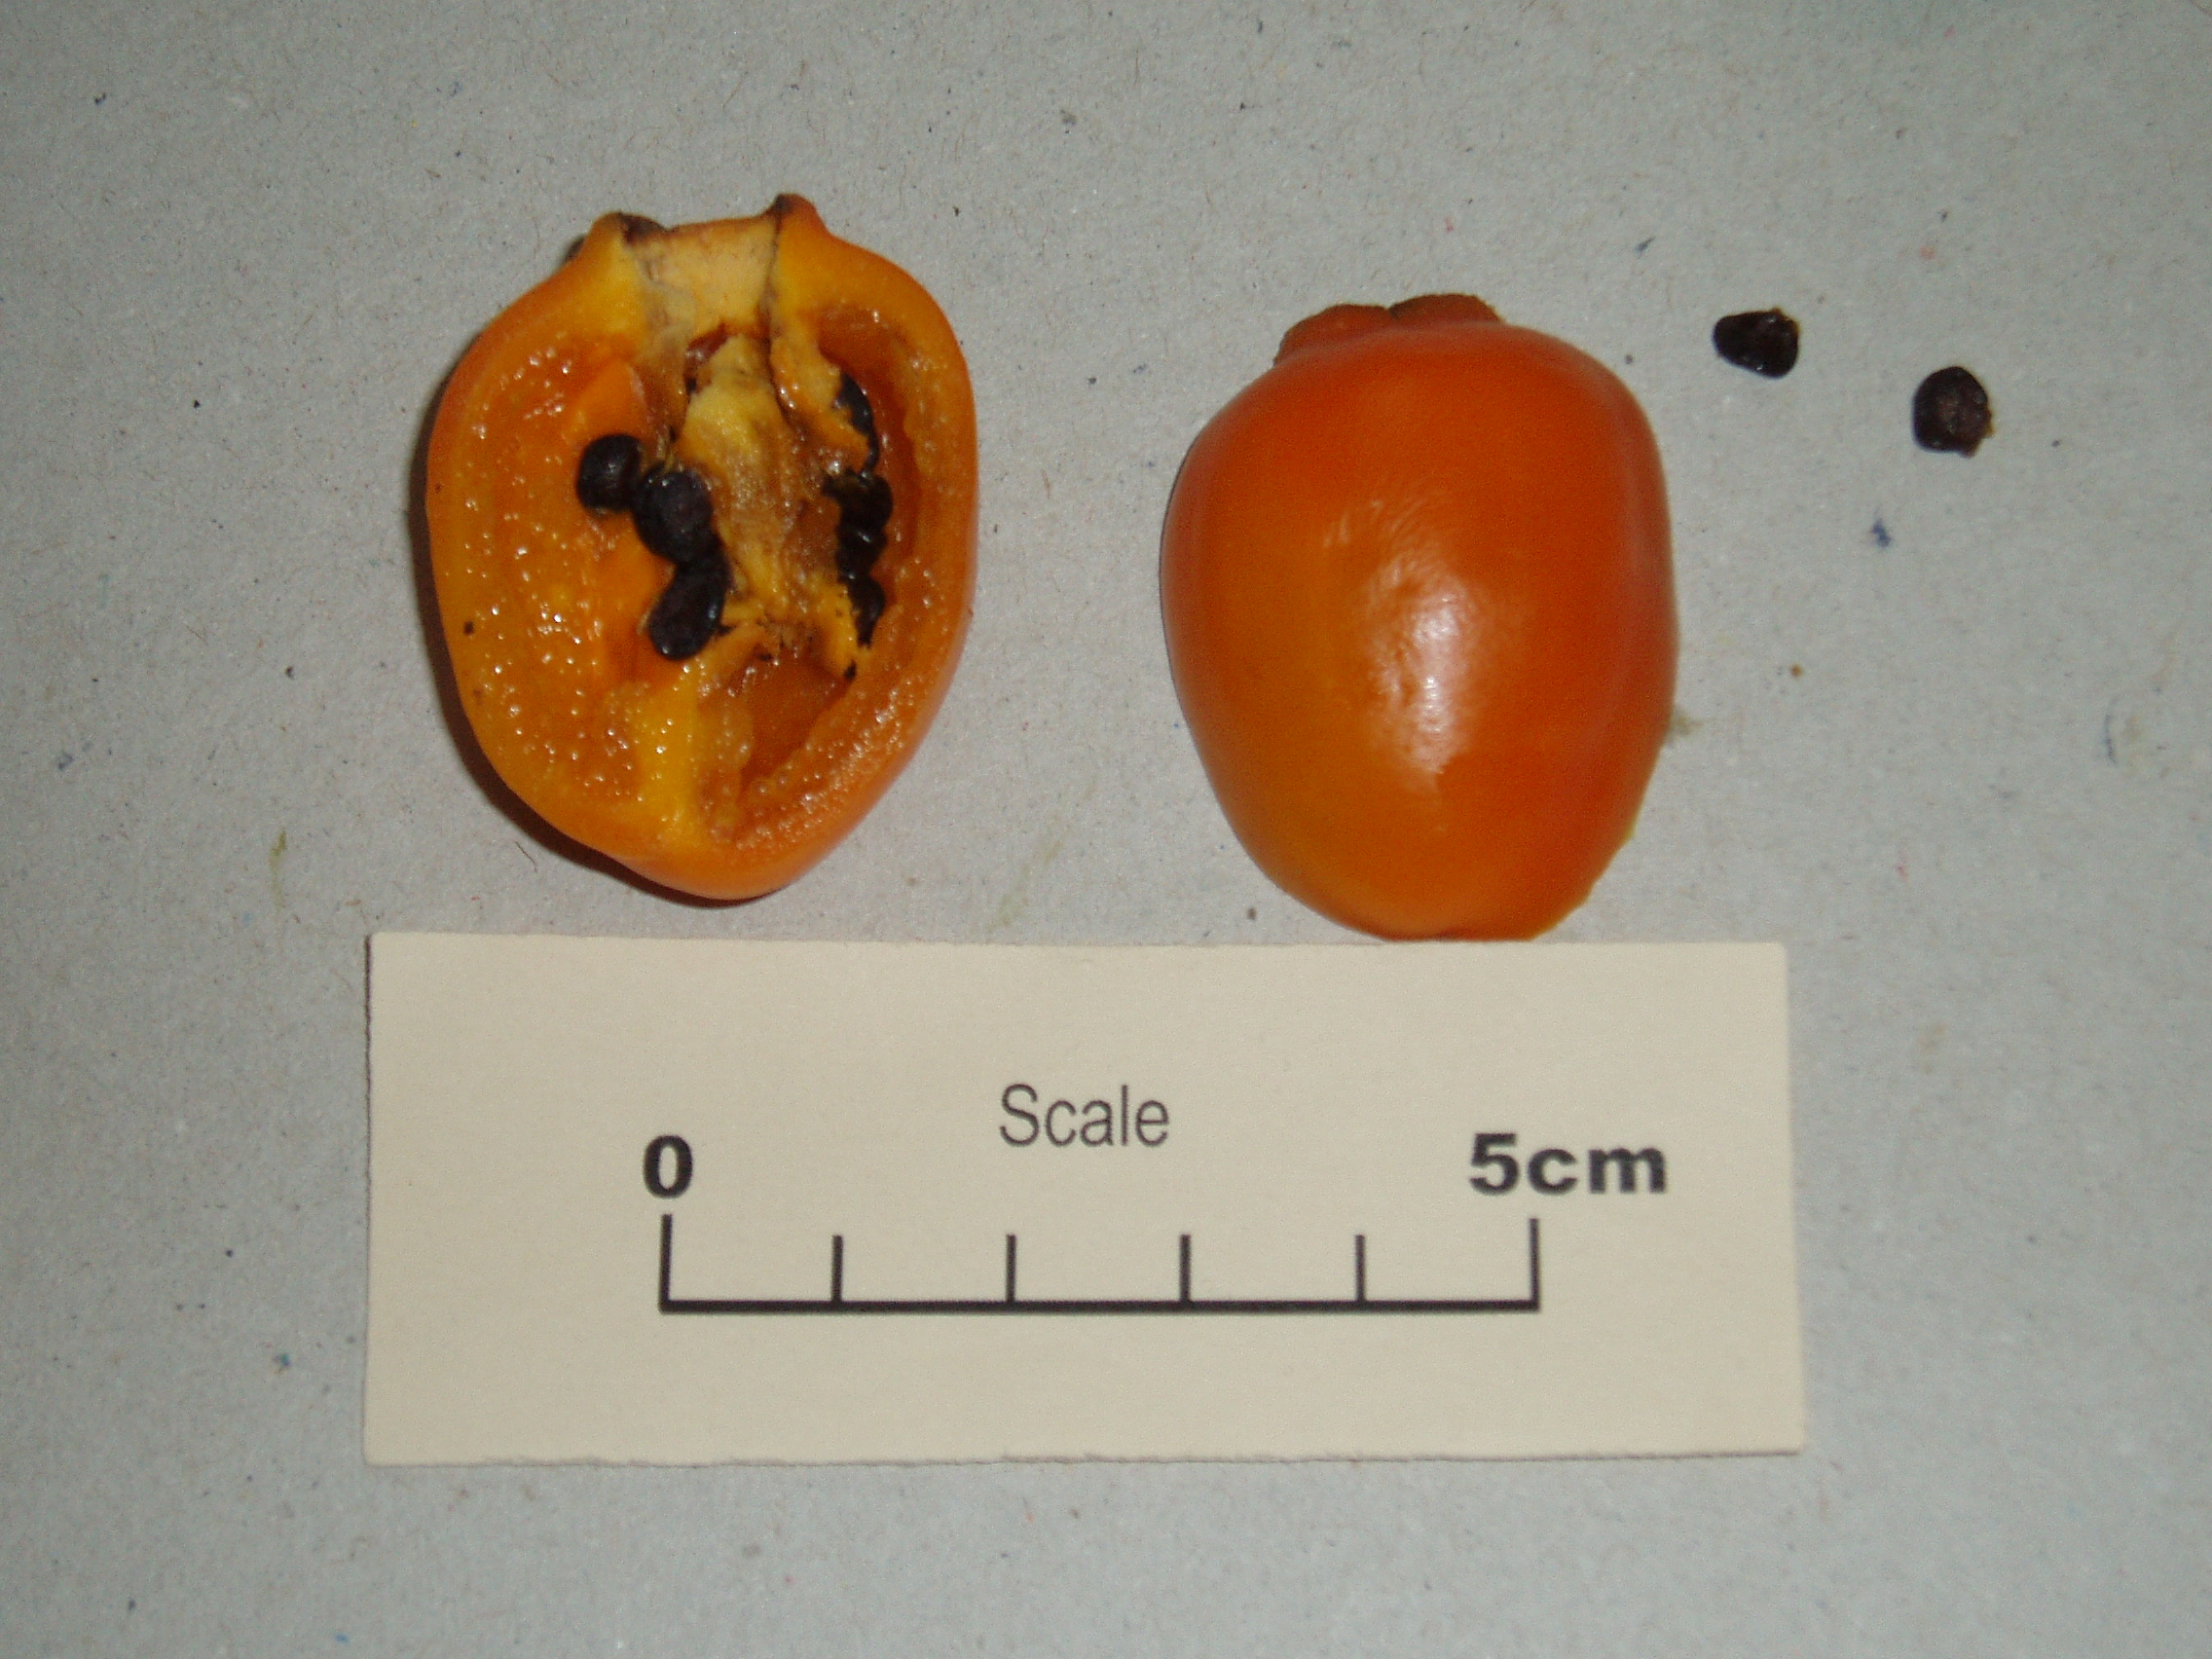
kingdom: Plantae
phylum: Tracheophyta
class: Magnoliopsida
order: Solanales
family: Solanaceae
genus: Capsicum
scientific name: Capsicum pubescens
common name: Apple chile
